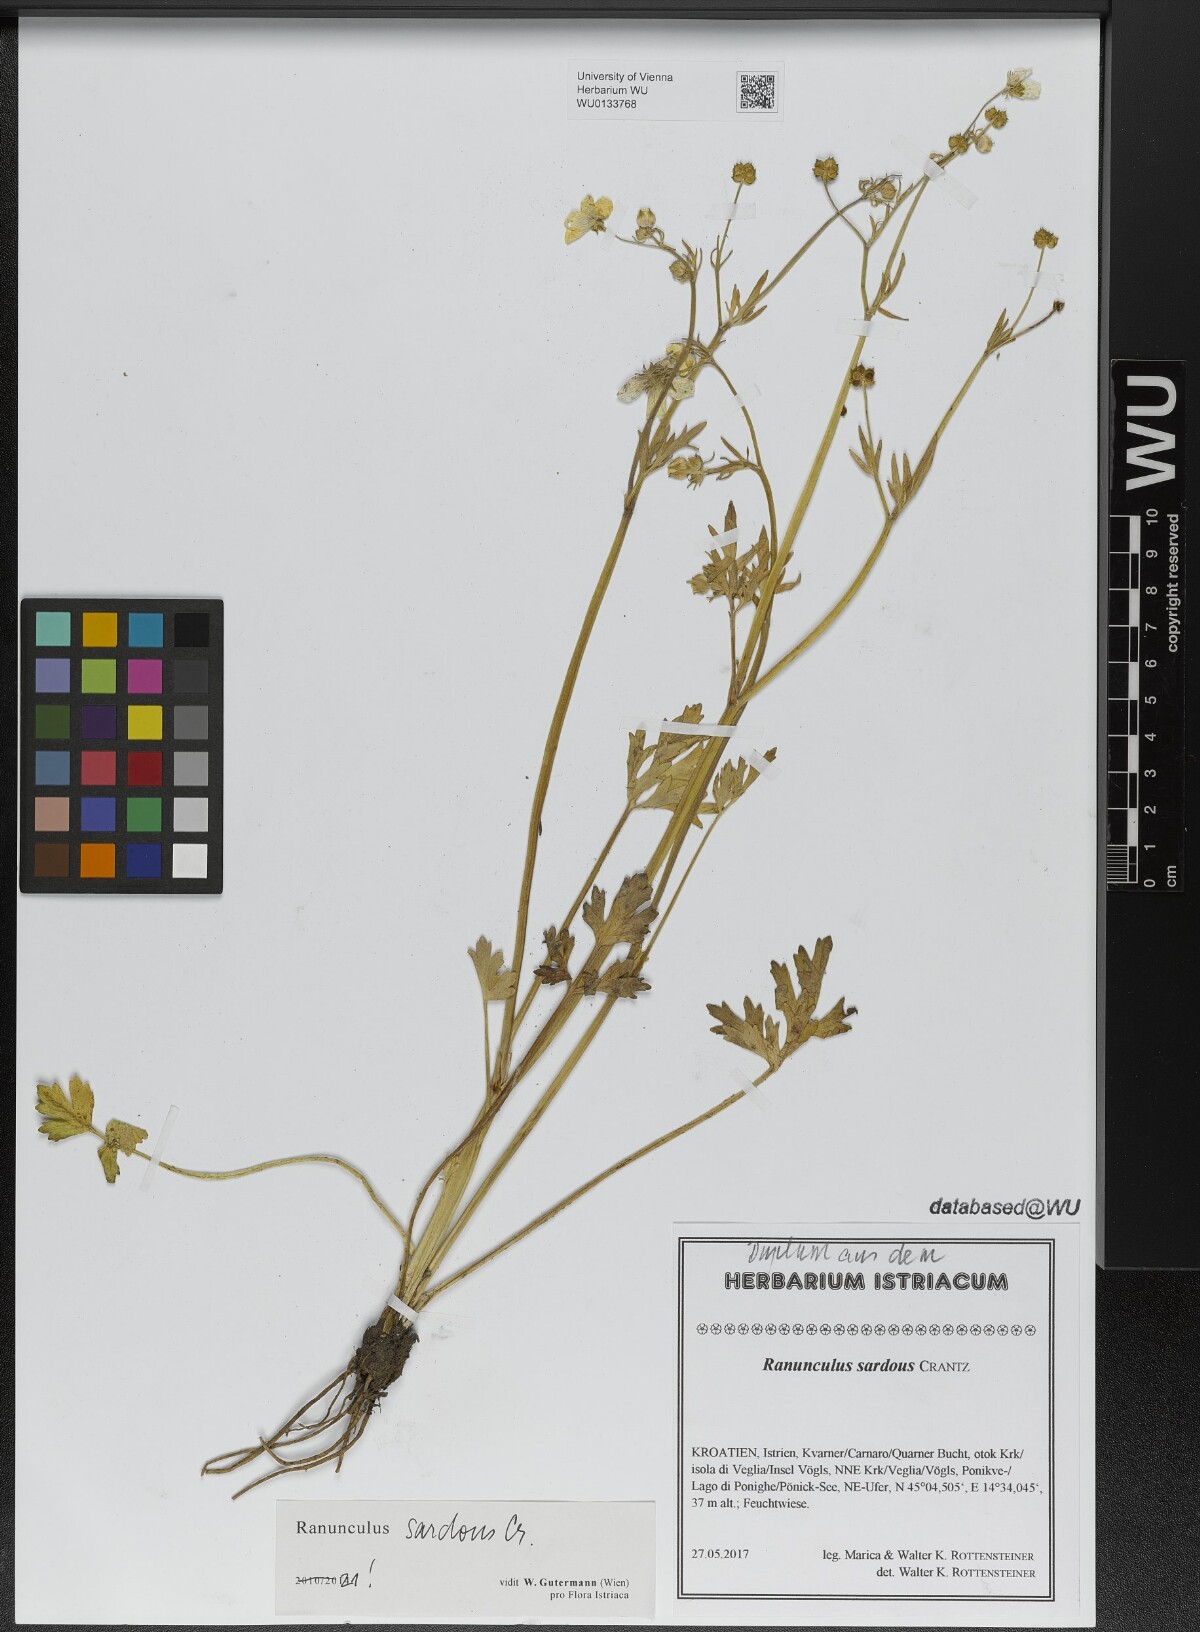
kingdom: Plantae
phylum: Tracheophyta
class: Magnoliopsida
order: Ranunculales
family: Ranunculaceae
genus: Ranunculus
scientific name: Ranunculus sardous
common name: Hairy buttercup
